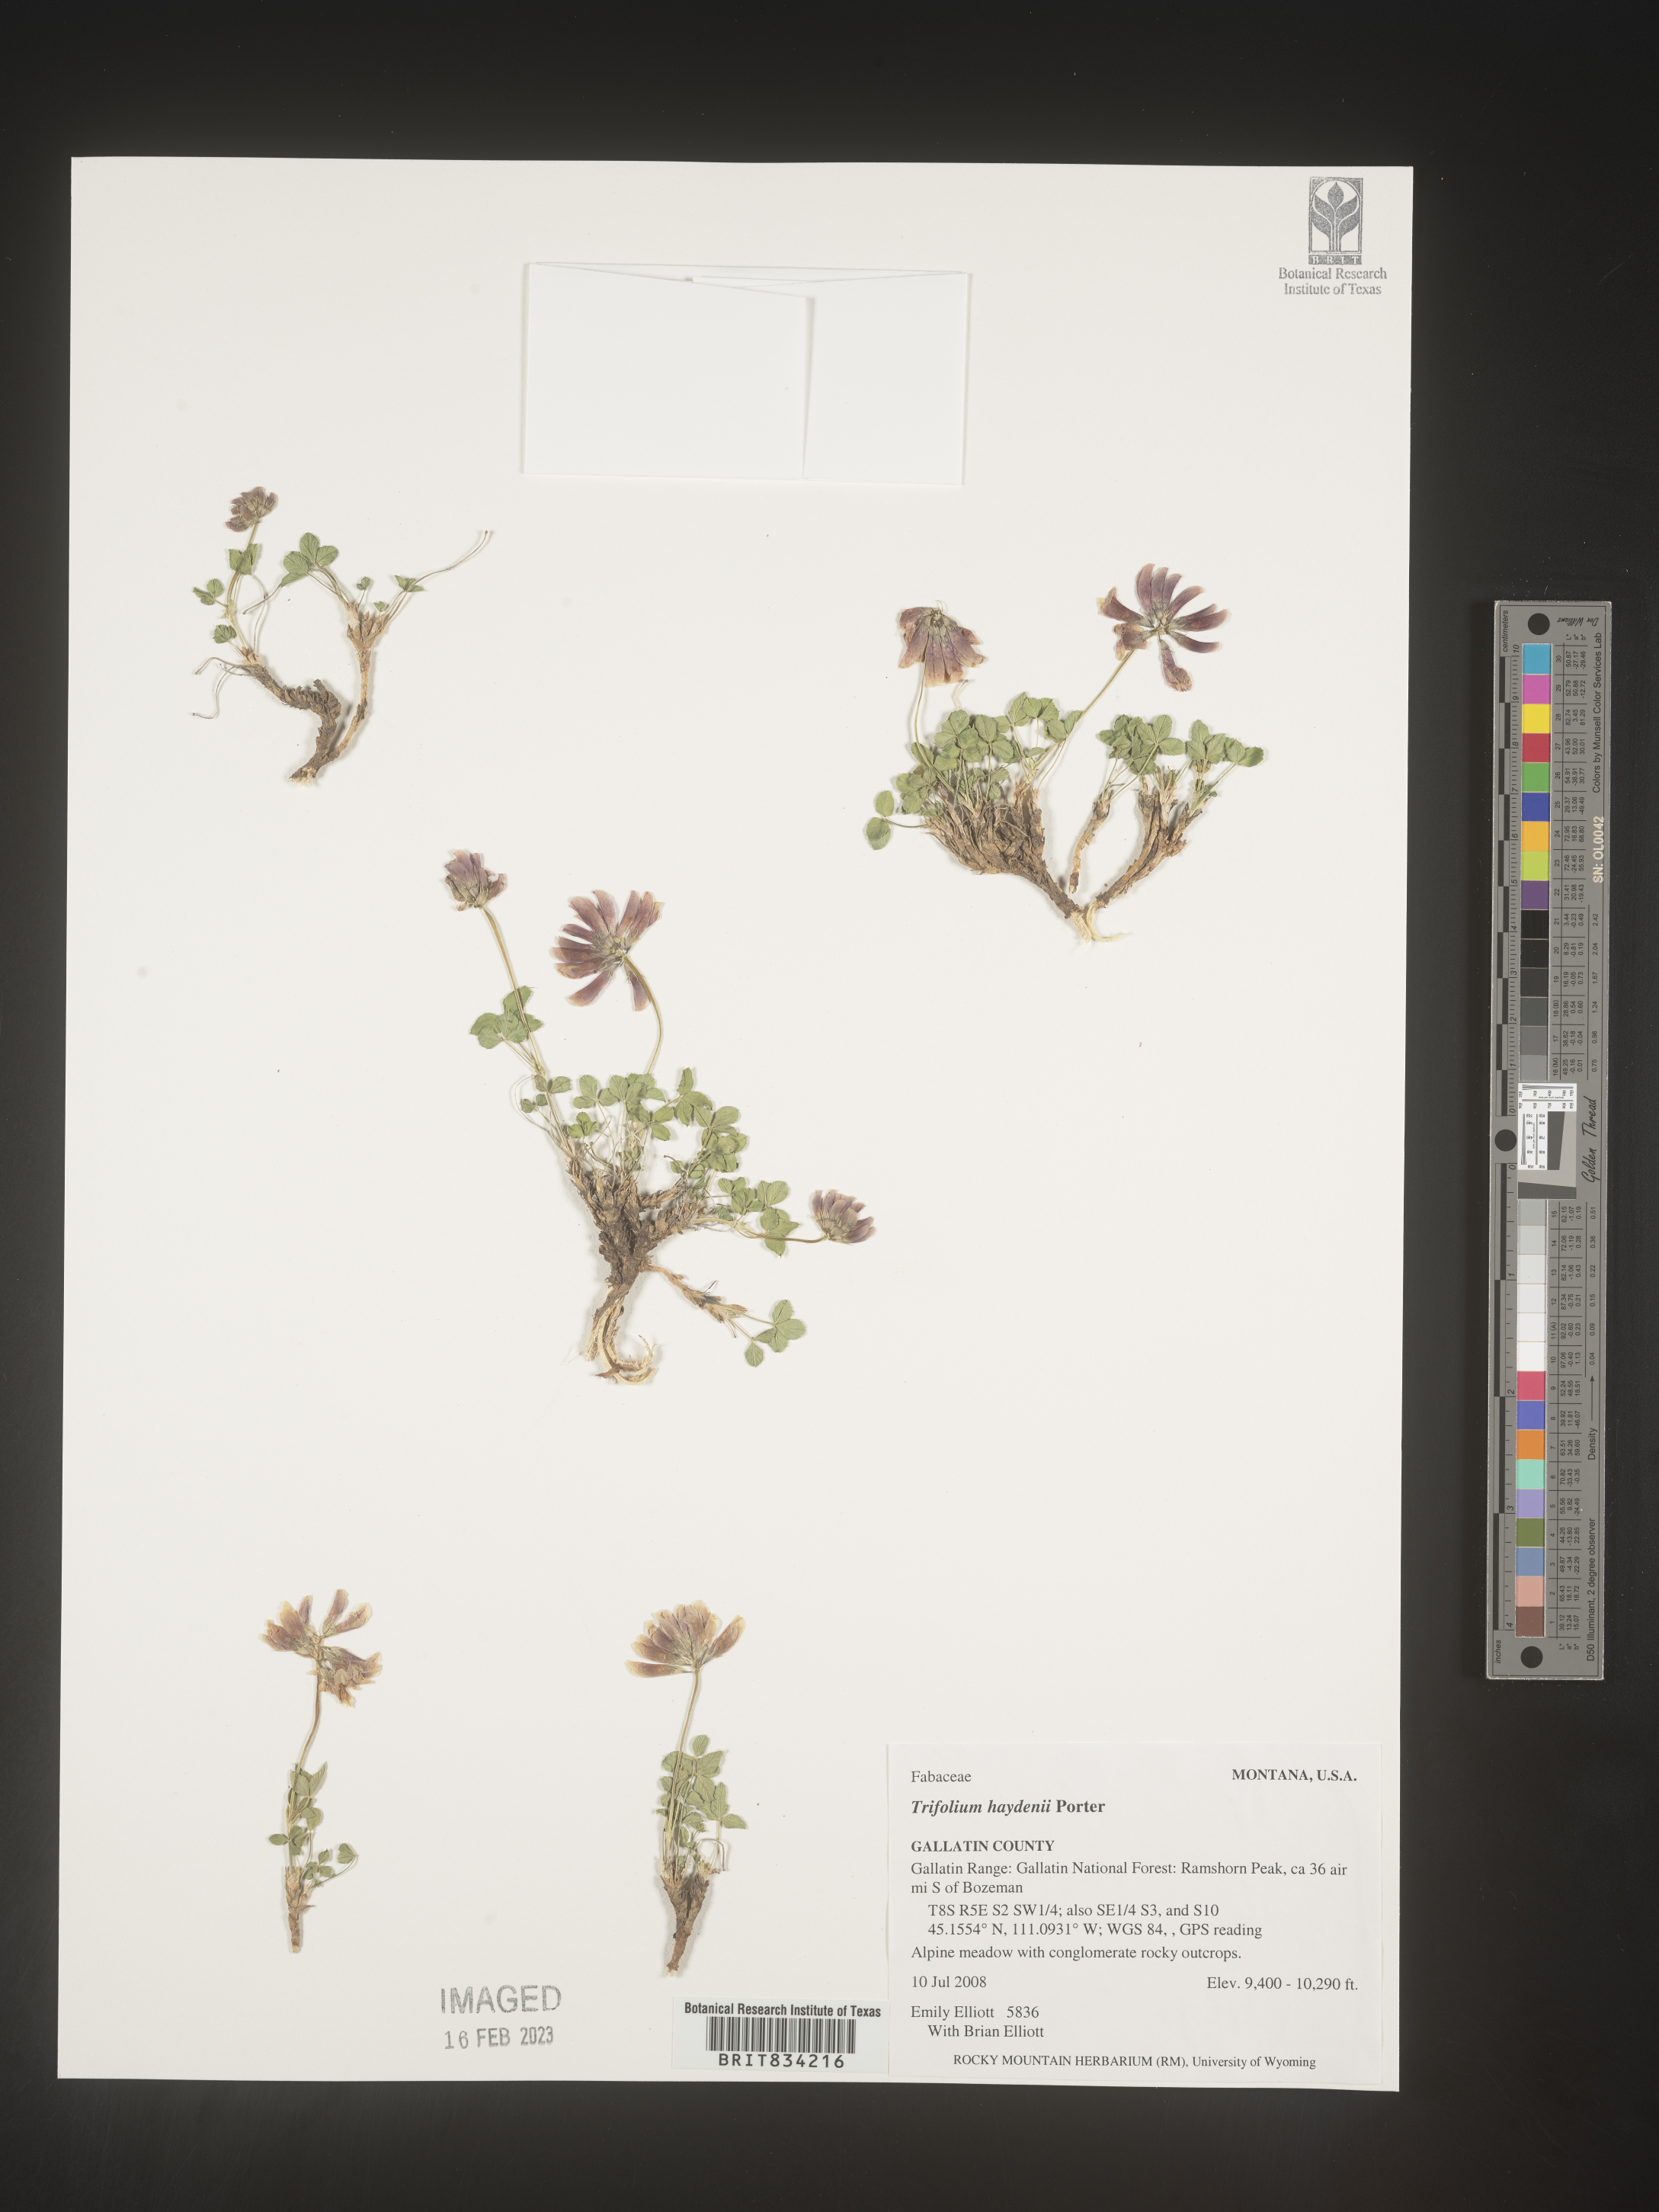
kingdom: Plantae
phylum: Tracheophyta
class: Magnoliopsida
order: Fabales
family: Fabaceae
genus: Trifolium
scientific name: Trifolium
